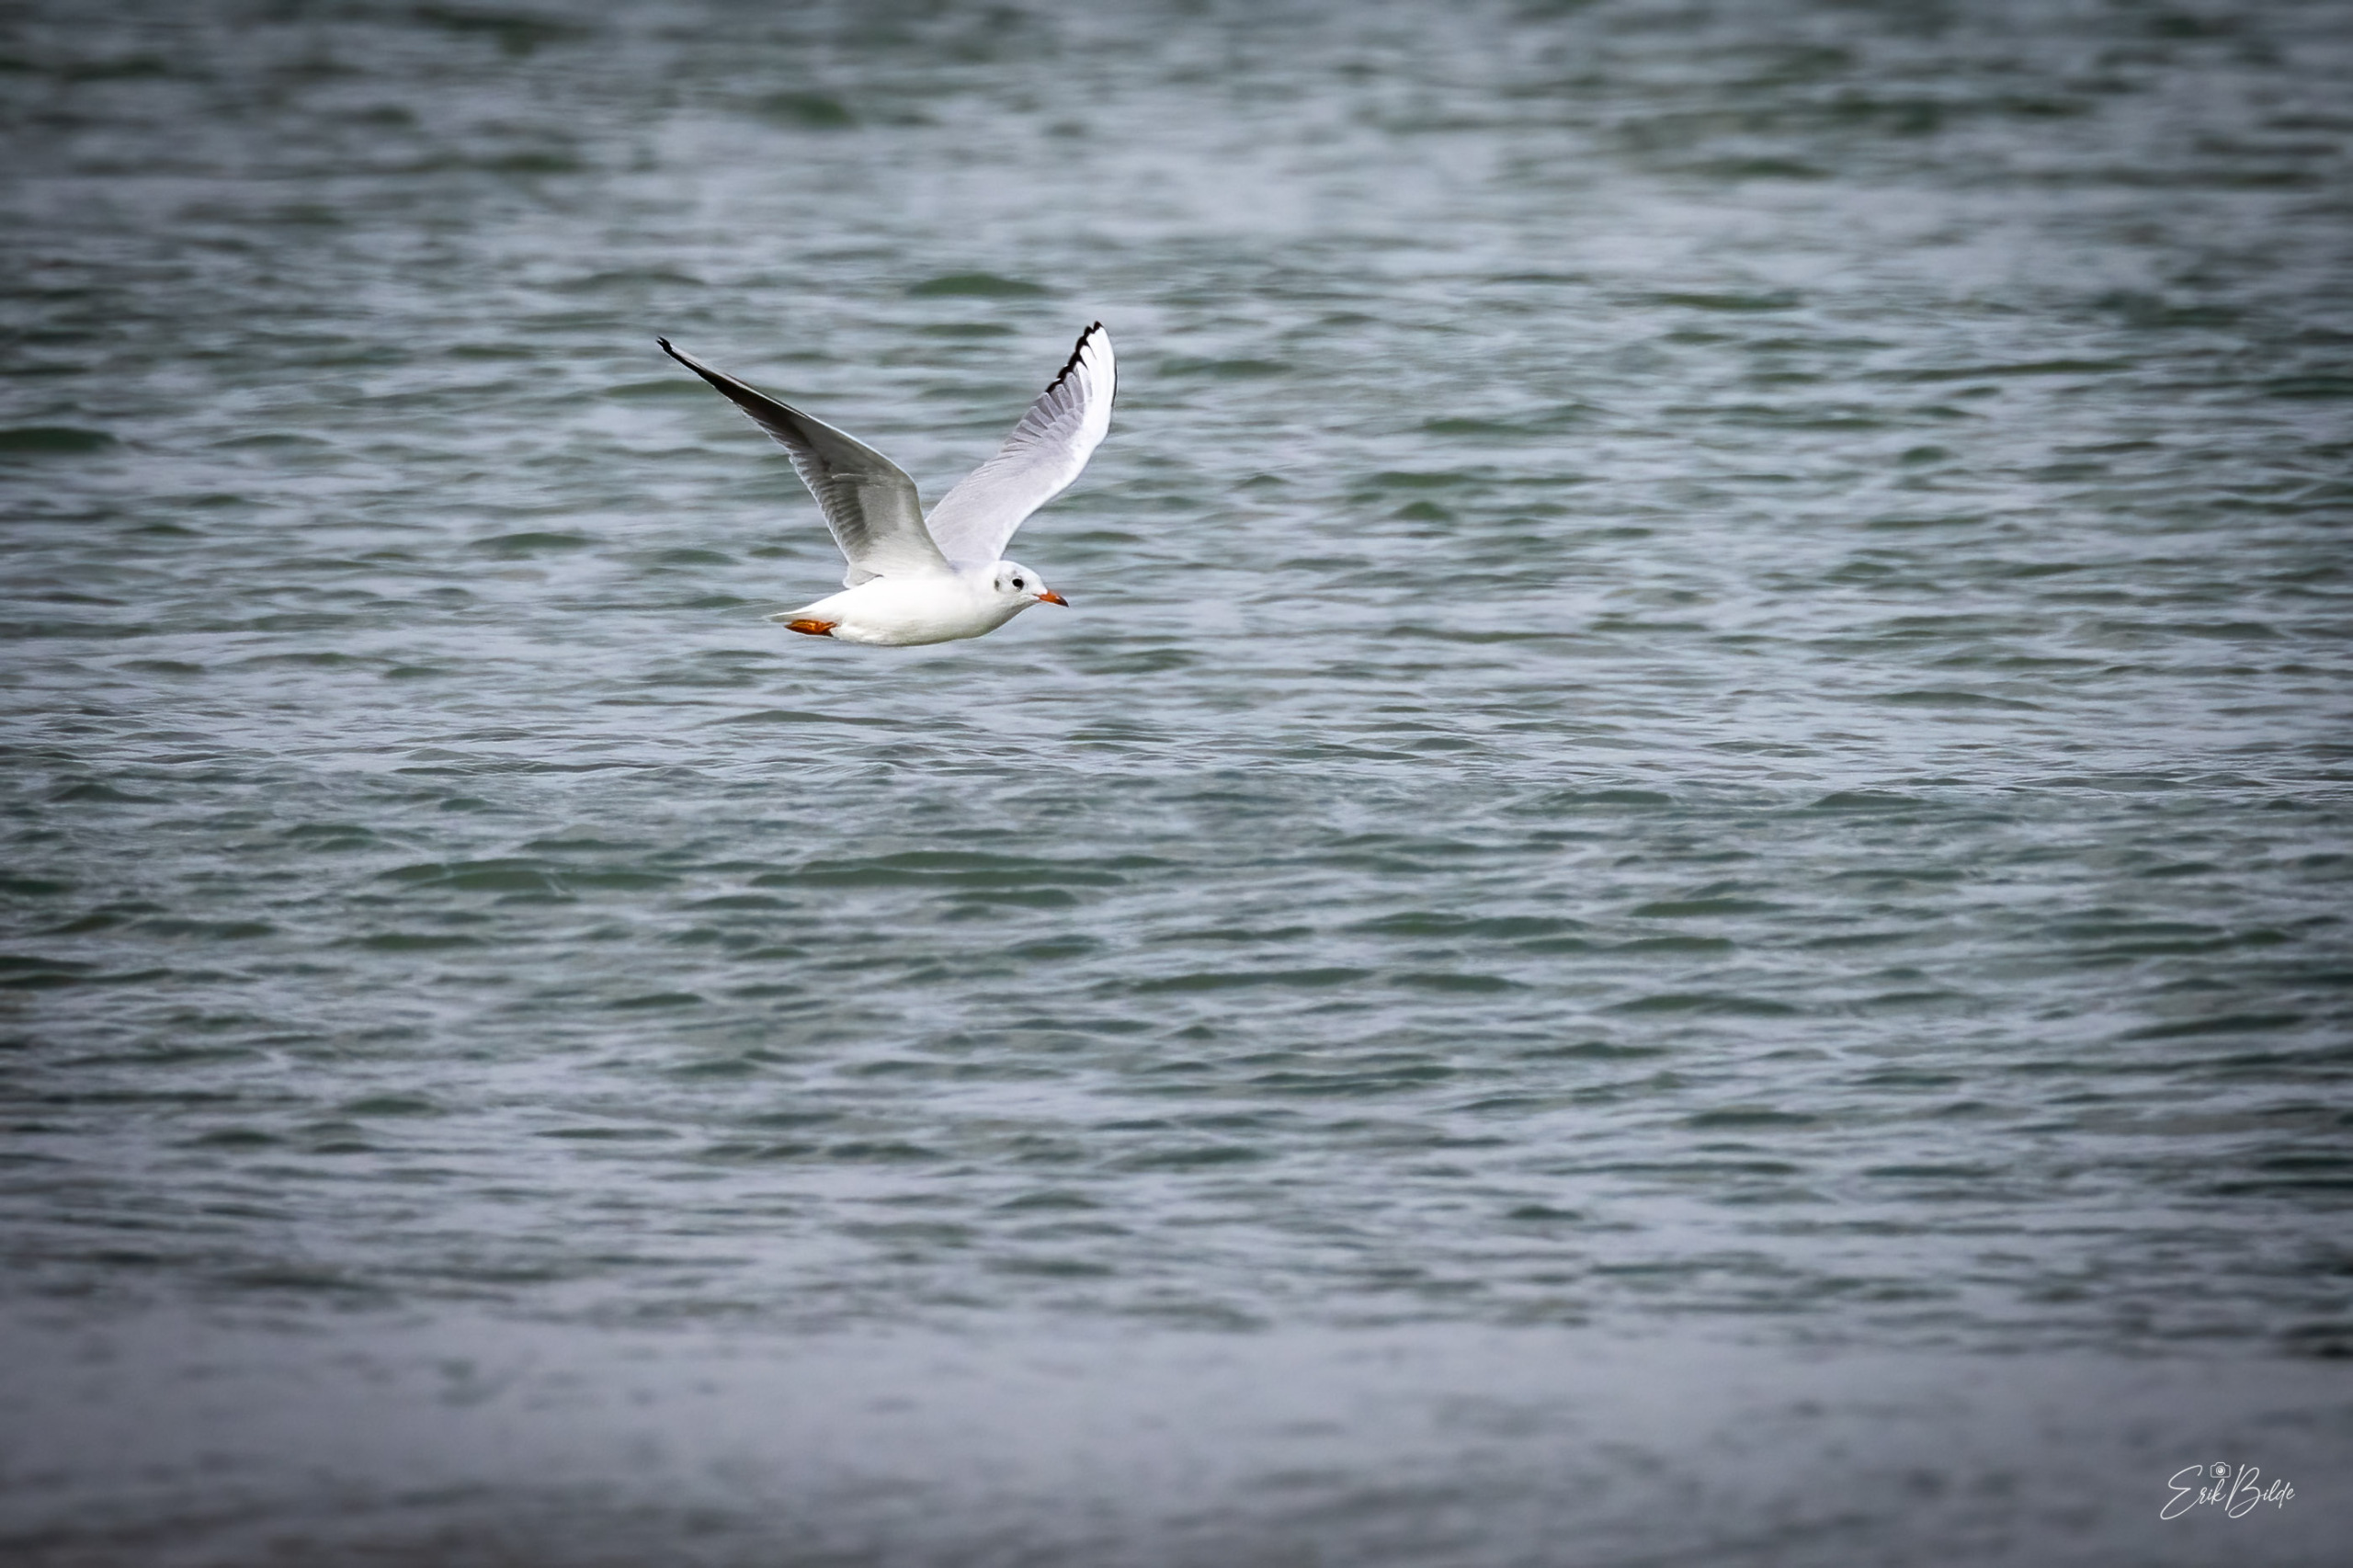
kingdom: Animalia
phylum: Chordata
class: Aves
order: Charadriiformes
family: Laridae
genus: Chroicocephalus
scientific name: Chroicocephalus ridibundus
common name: Hættemåge
